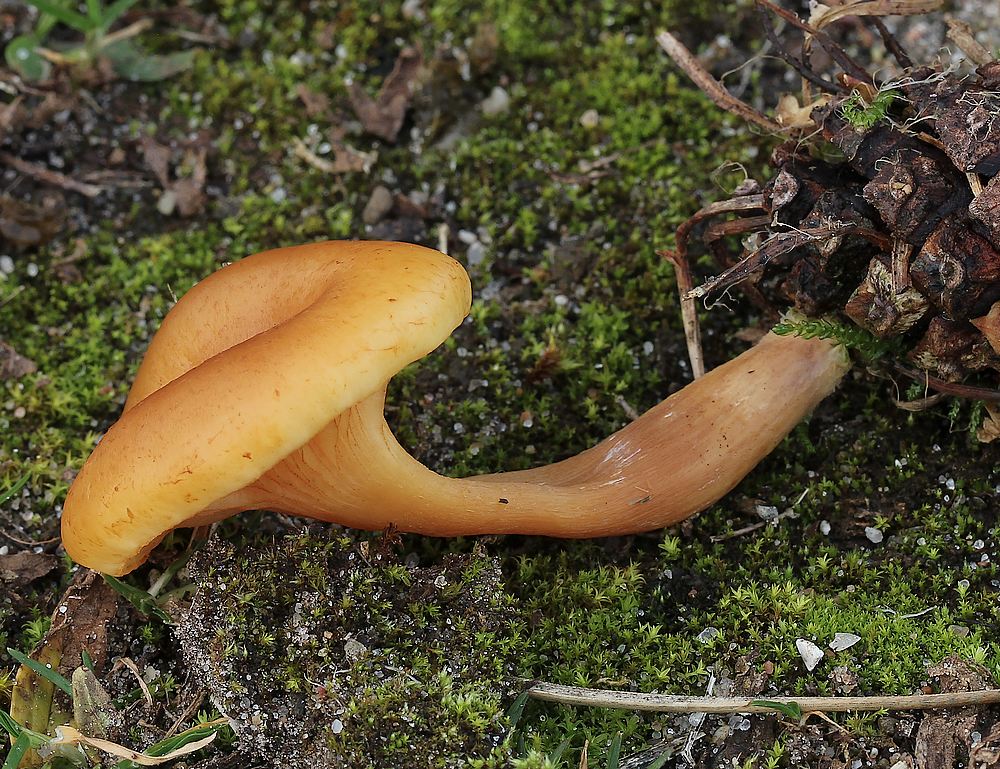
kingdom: Fungi
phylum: Basidiomycota
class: Agaricomycetes
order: Agaricales
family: Hymenogastraceae
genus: Gymnopilus
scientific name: Gymnopilus penetrans
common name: plettet flammehat
